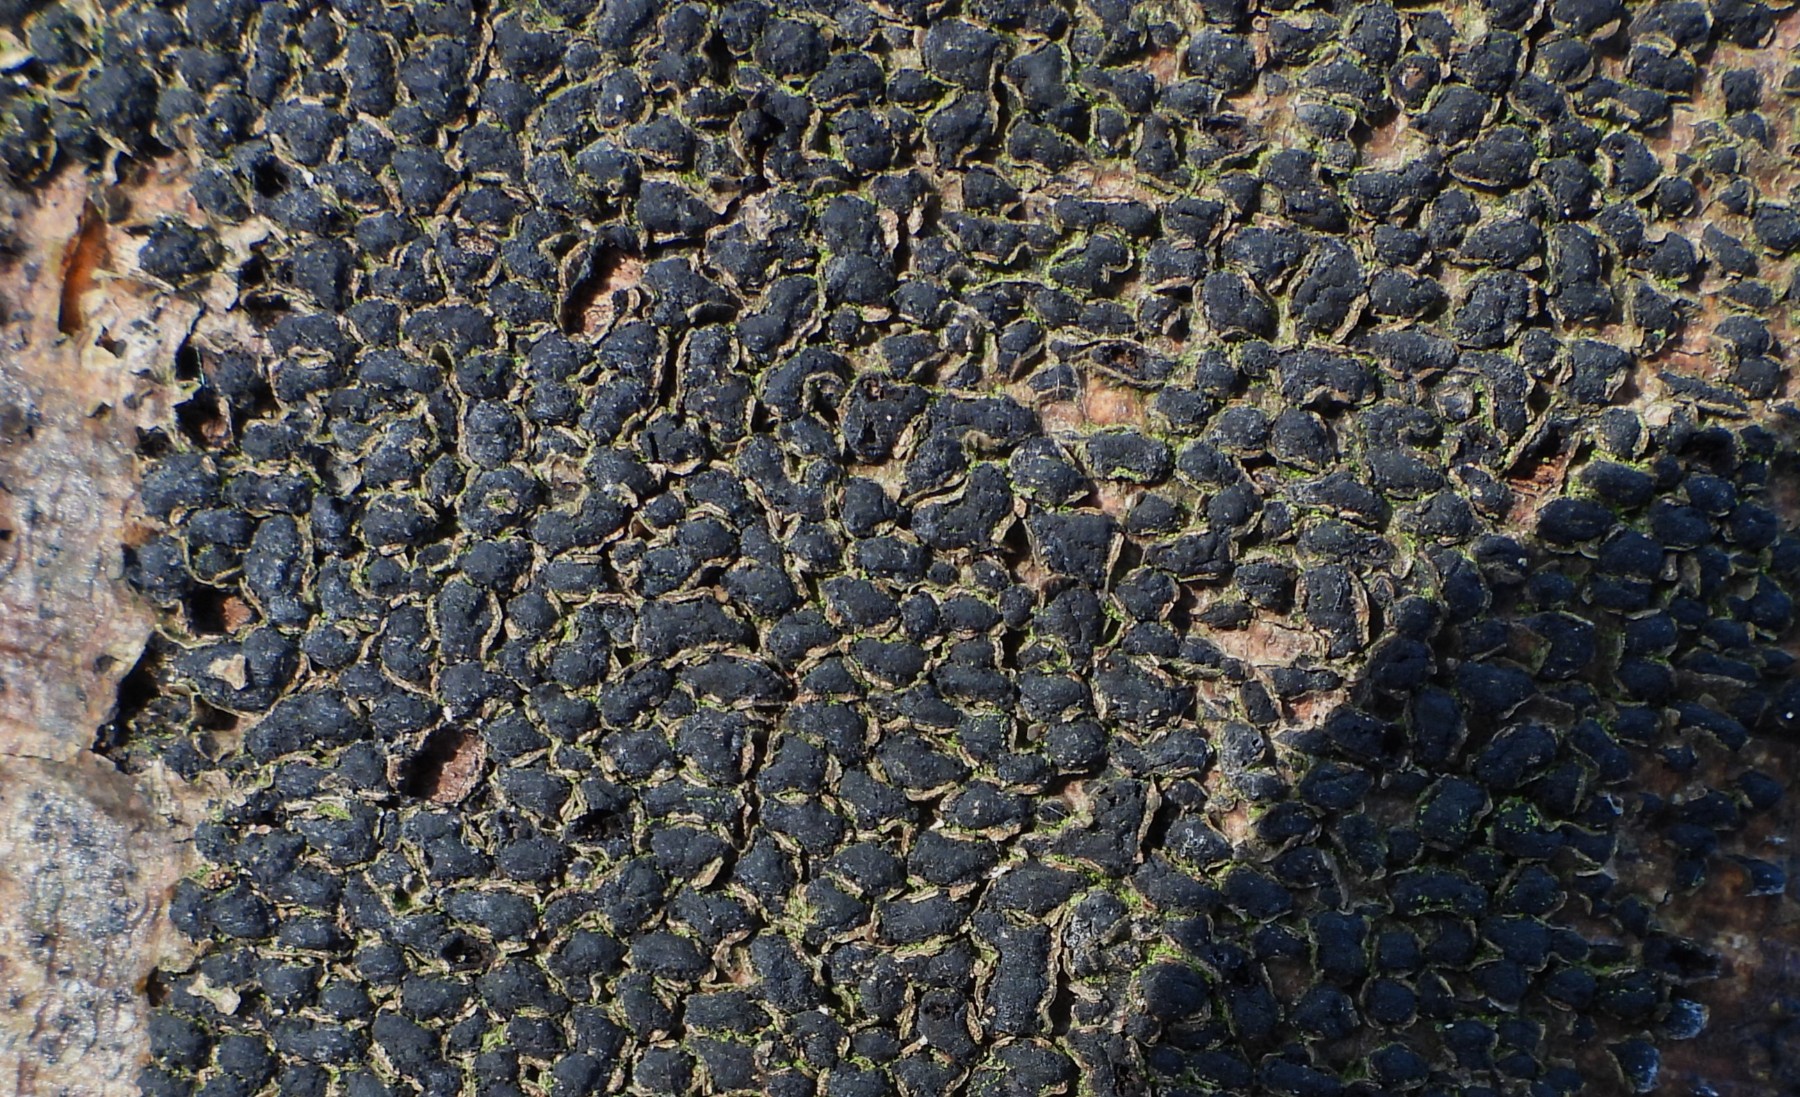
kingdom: Fungi
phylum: Ascomycota
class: Sordariomycetes
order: Xylariales
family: Melogrammataceae
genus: Melogramma
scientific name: Melogramma spiniferum
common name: bøgefod-kulhals
